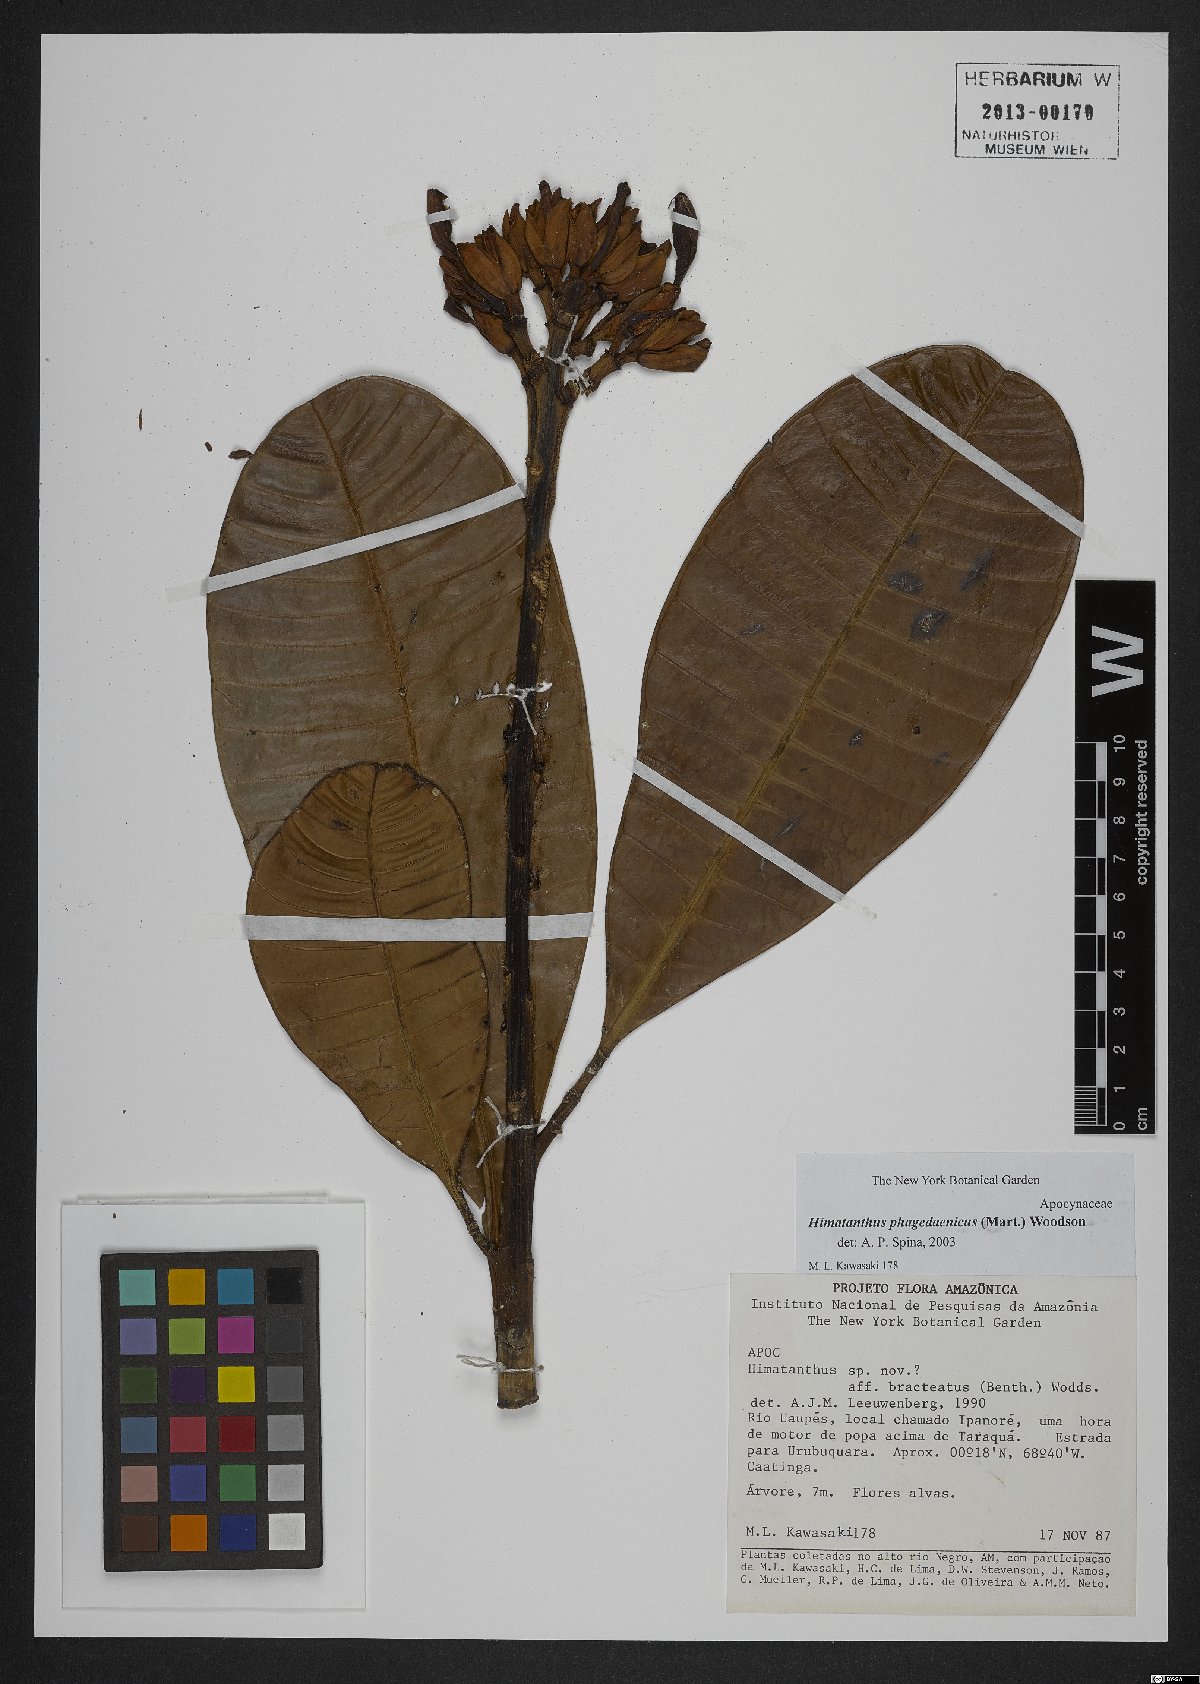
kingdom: Plantae
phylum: Tracheophyta
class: Magnoliopsida
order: Gentianales
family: Apocynaceae
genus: Himatanthus
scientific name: Himatanthus phagedaenicus
